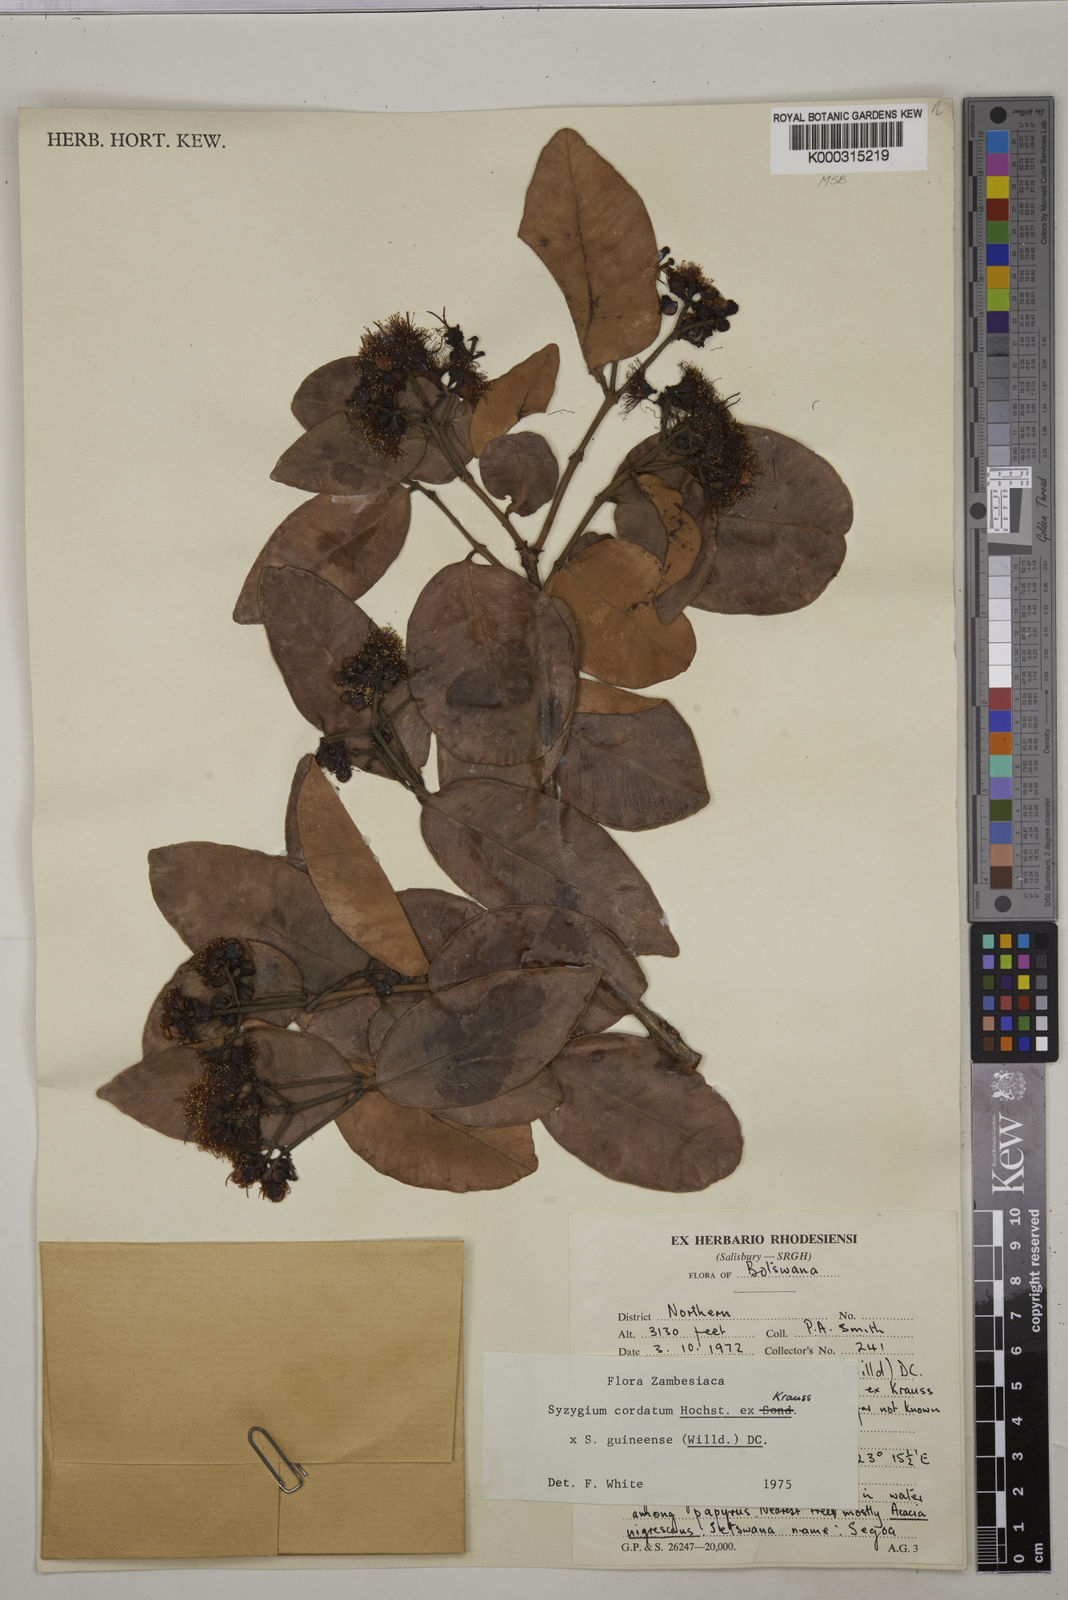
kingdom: Plantae
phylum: Tracheophyta
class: Magnoliopsida
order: Myrtales
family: Myrtaceae
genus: Syzygium
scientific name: Syzygium
